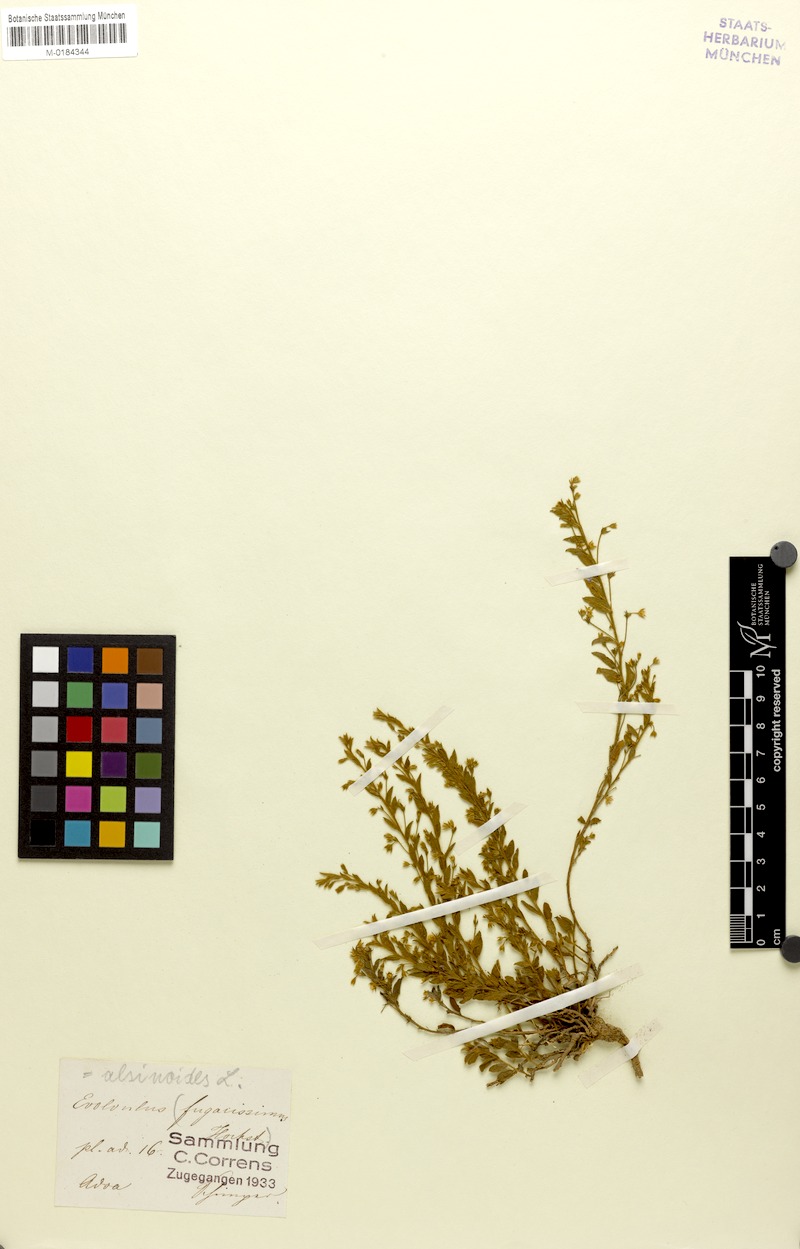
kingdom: Plantae
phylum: Tracheophyta
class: Magnoliopsida
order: Solanales
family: Convolvulaceae
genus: Evolvulus
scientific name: Evolvulus alsinoides
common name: Slender dwarf morning-glory
